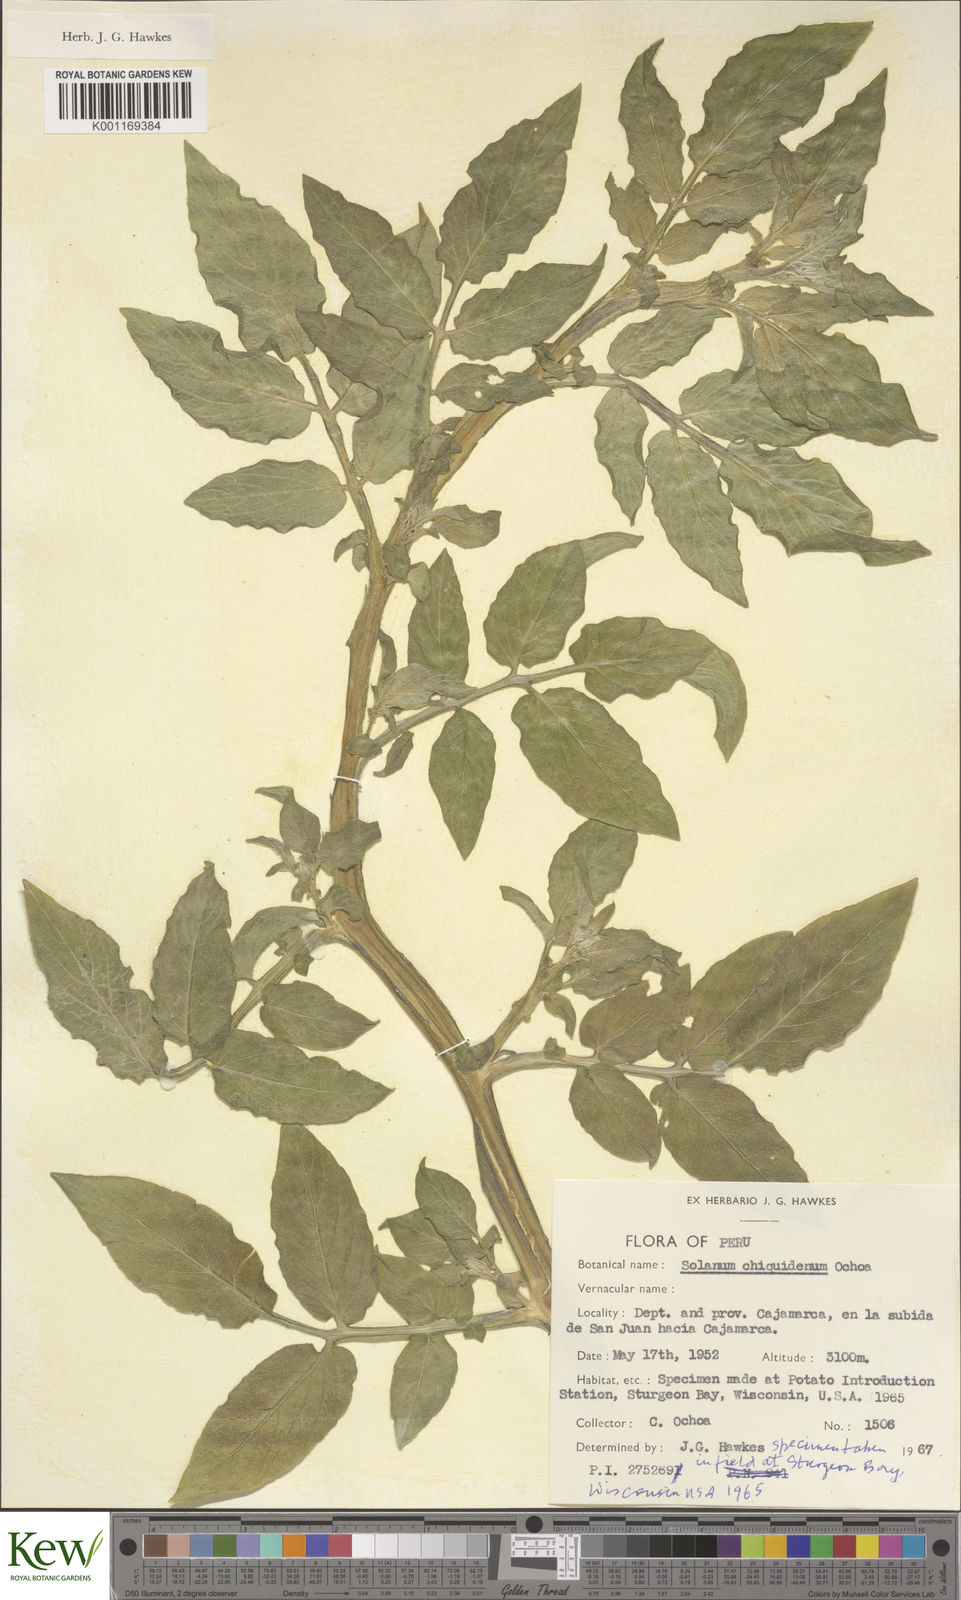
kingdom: Plantae
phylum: Tracheophyta
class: Magnoliopsida
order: Solanales
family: Solanaceae
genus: Solanum
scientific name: Solanum chiquidenum
